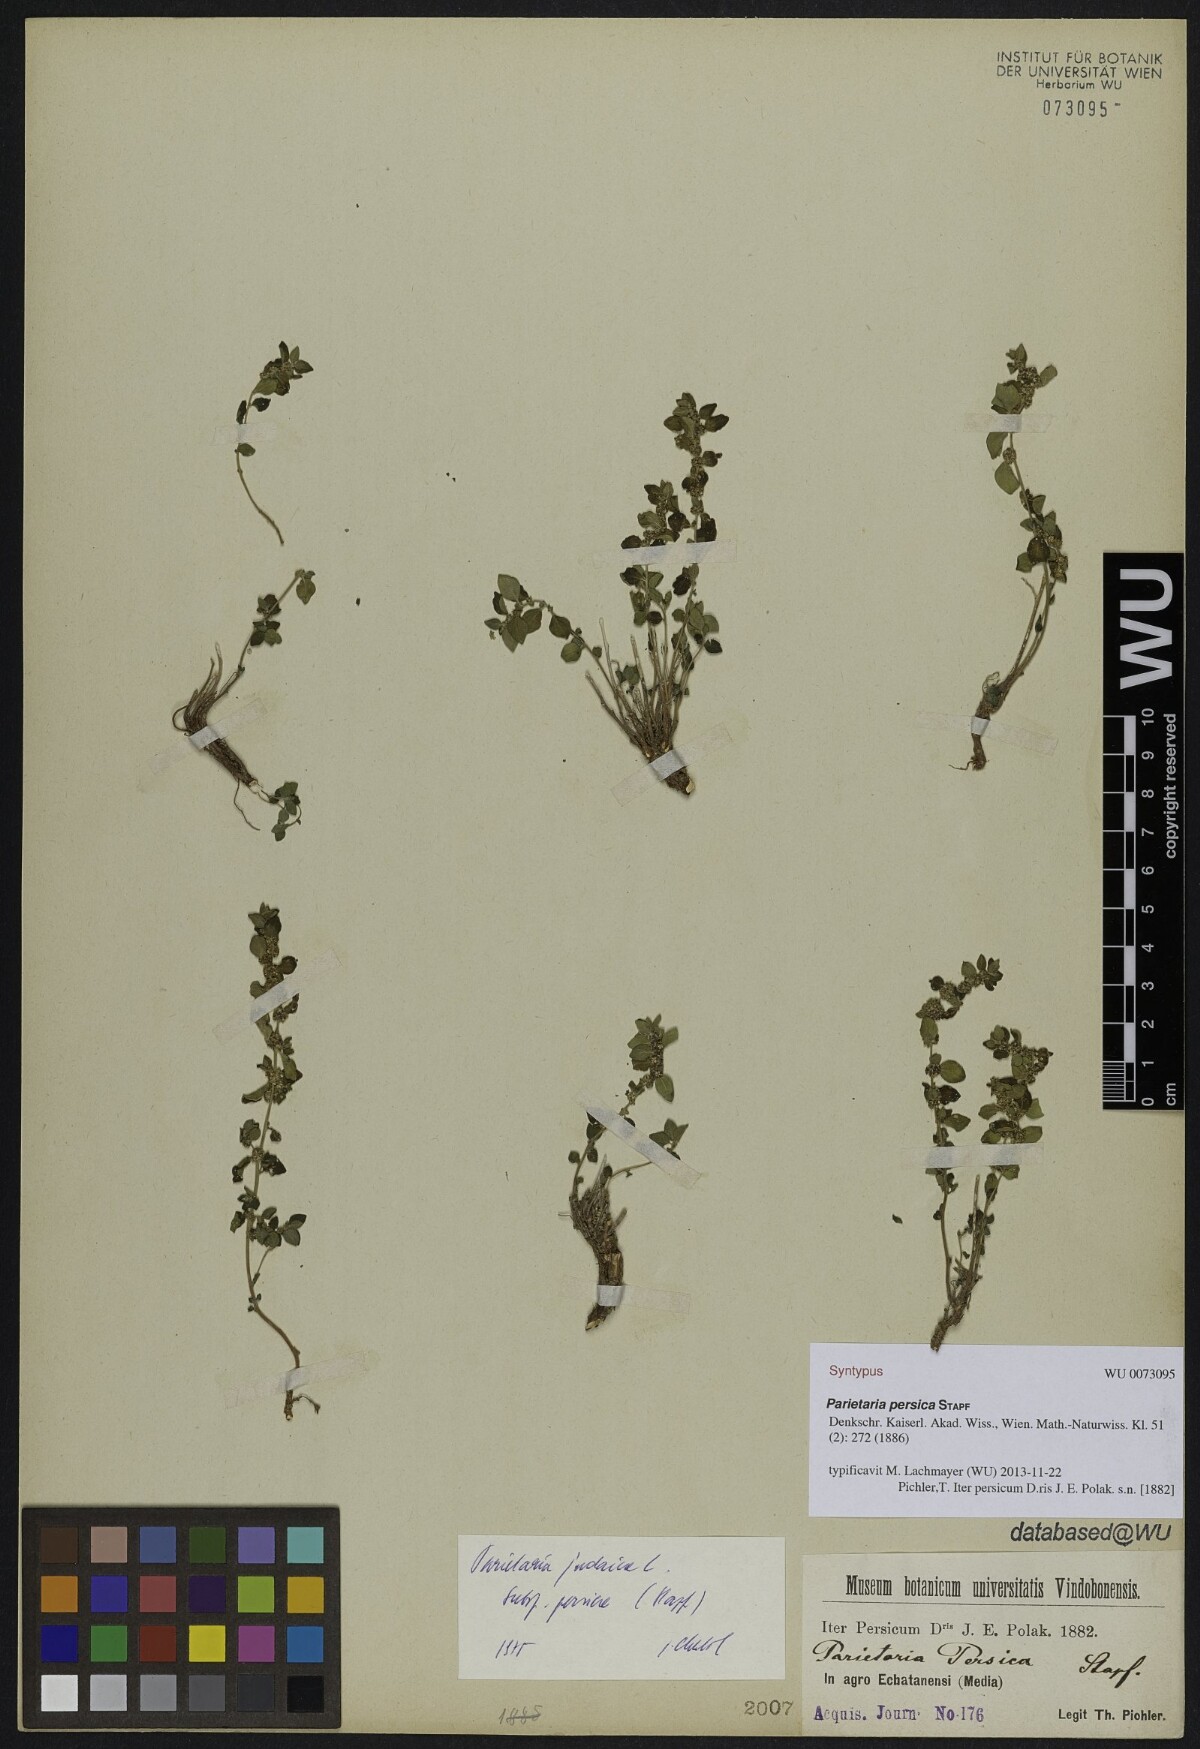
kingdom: Plantae
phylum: Tracheophyta
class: Magnoliopsida
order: Rosales
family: Urticaceae
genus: Parietaria
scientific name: Parietaria judaica
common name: Pellitory-of-the-wall
